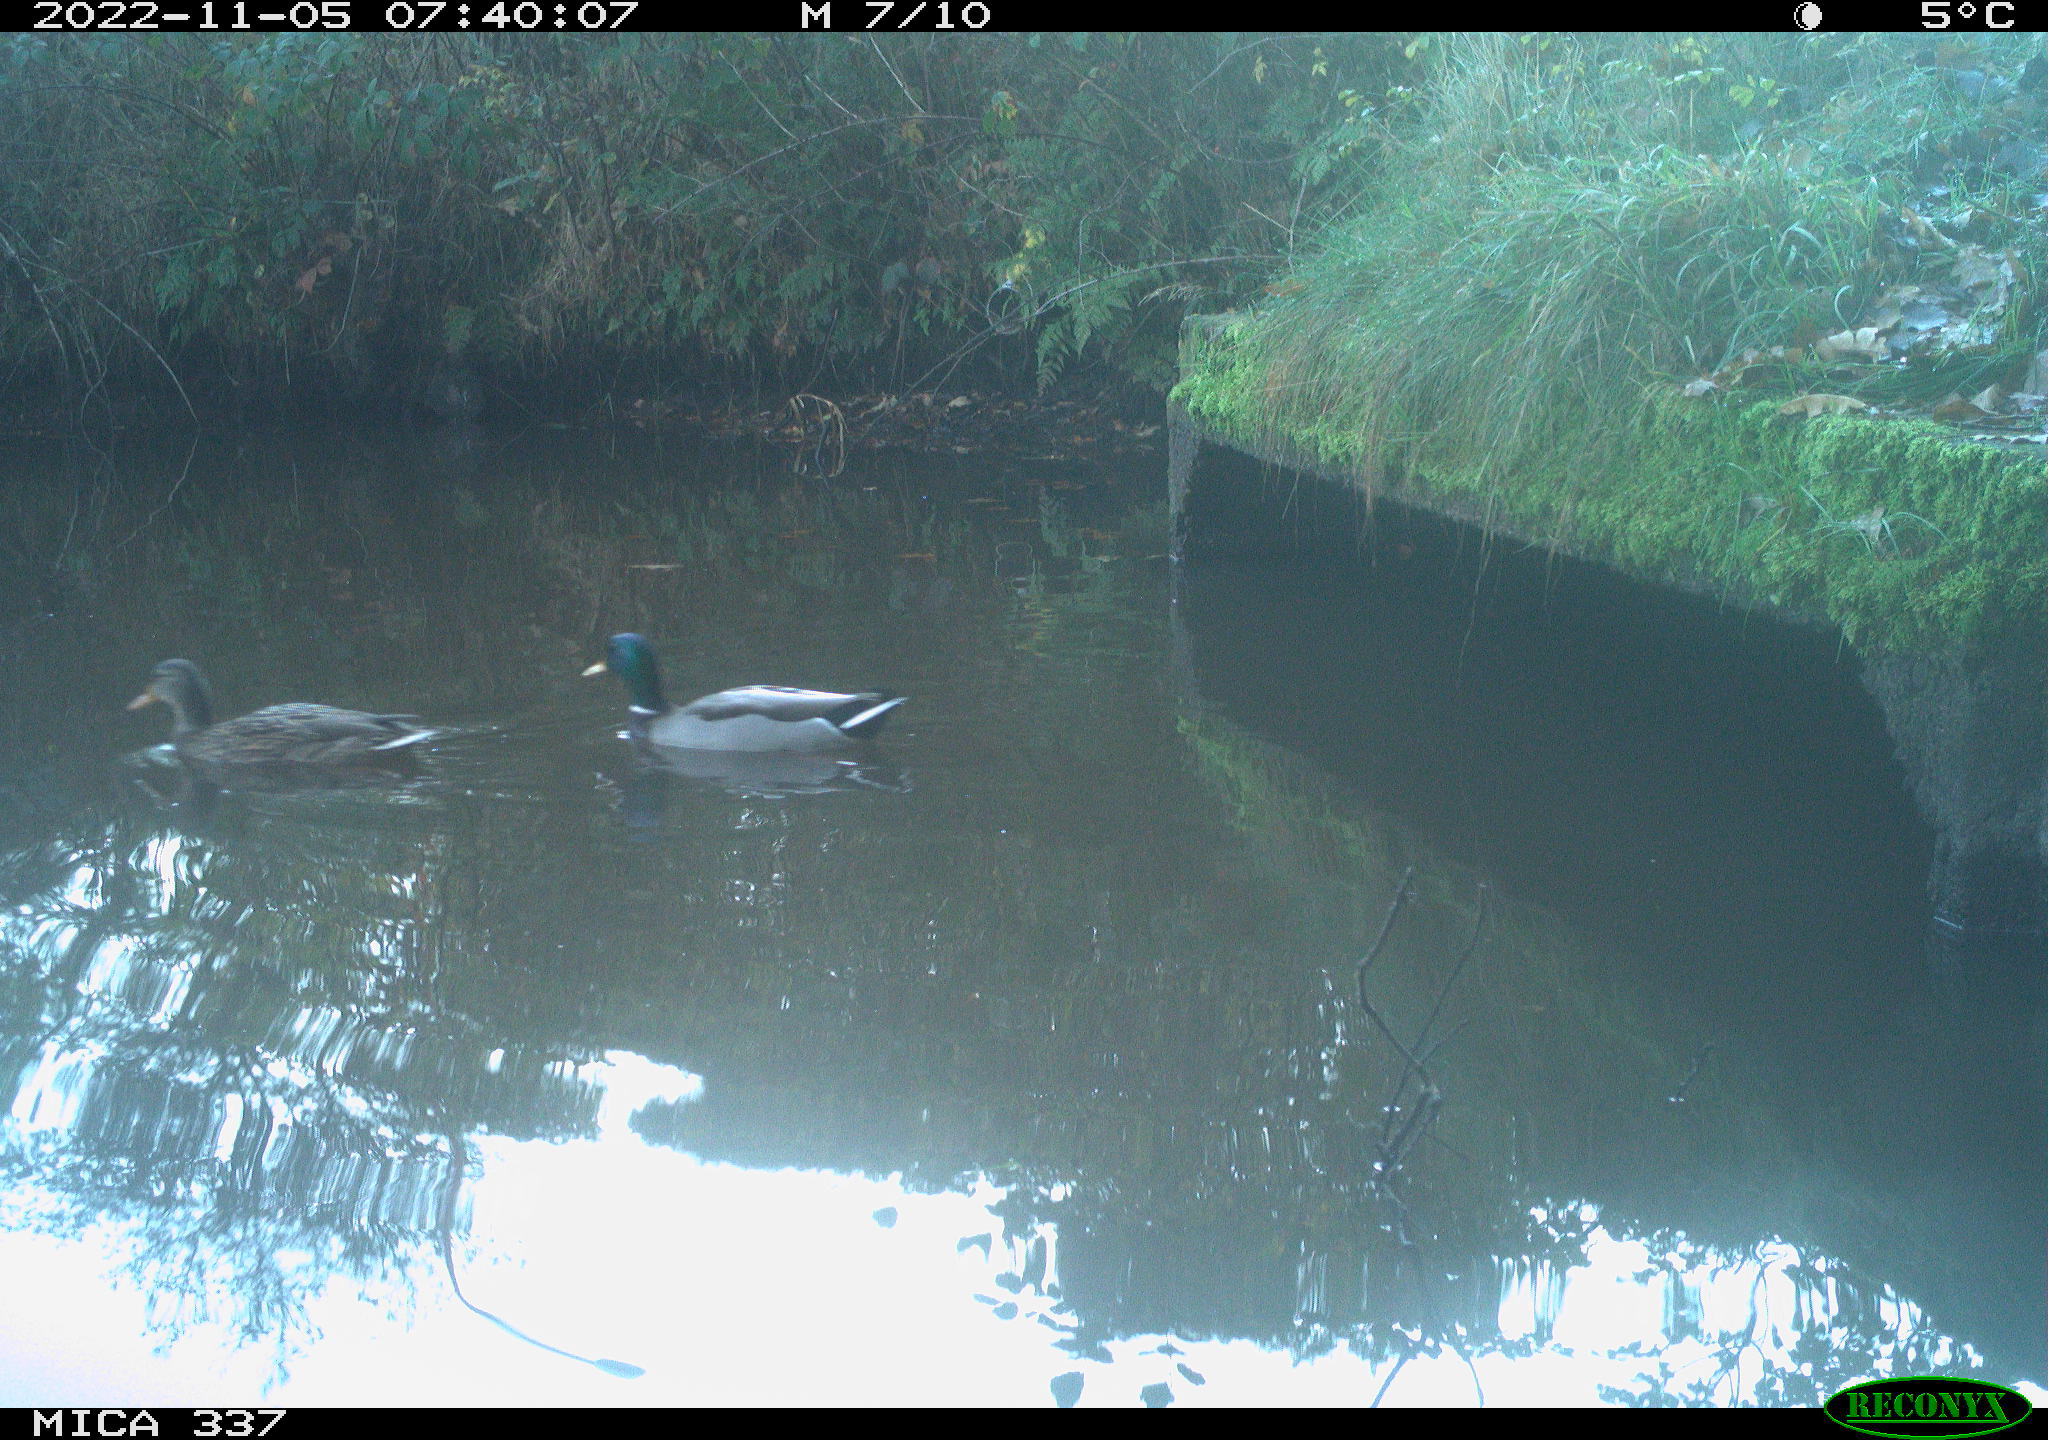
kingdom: Animalia
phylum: Chordata
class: Aves
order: Anseriformes
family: Anatidae
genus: Anas
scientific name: Anas platyrhynchos
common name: Mallard
